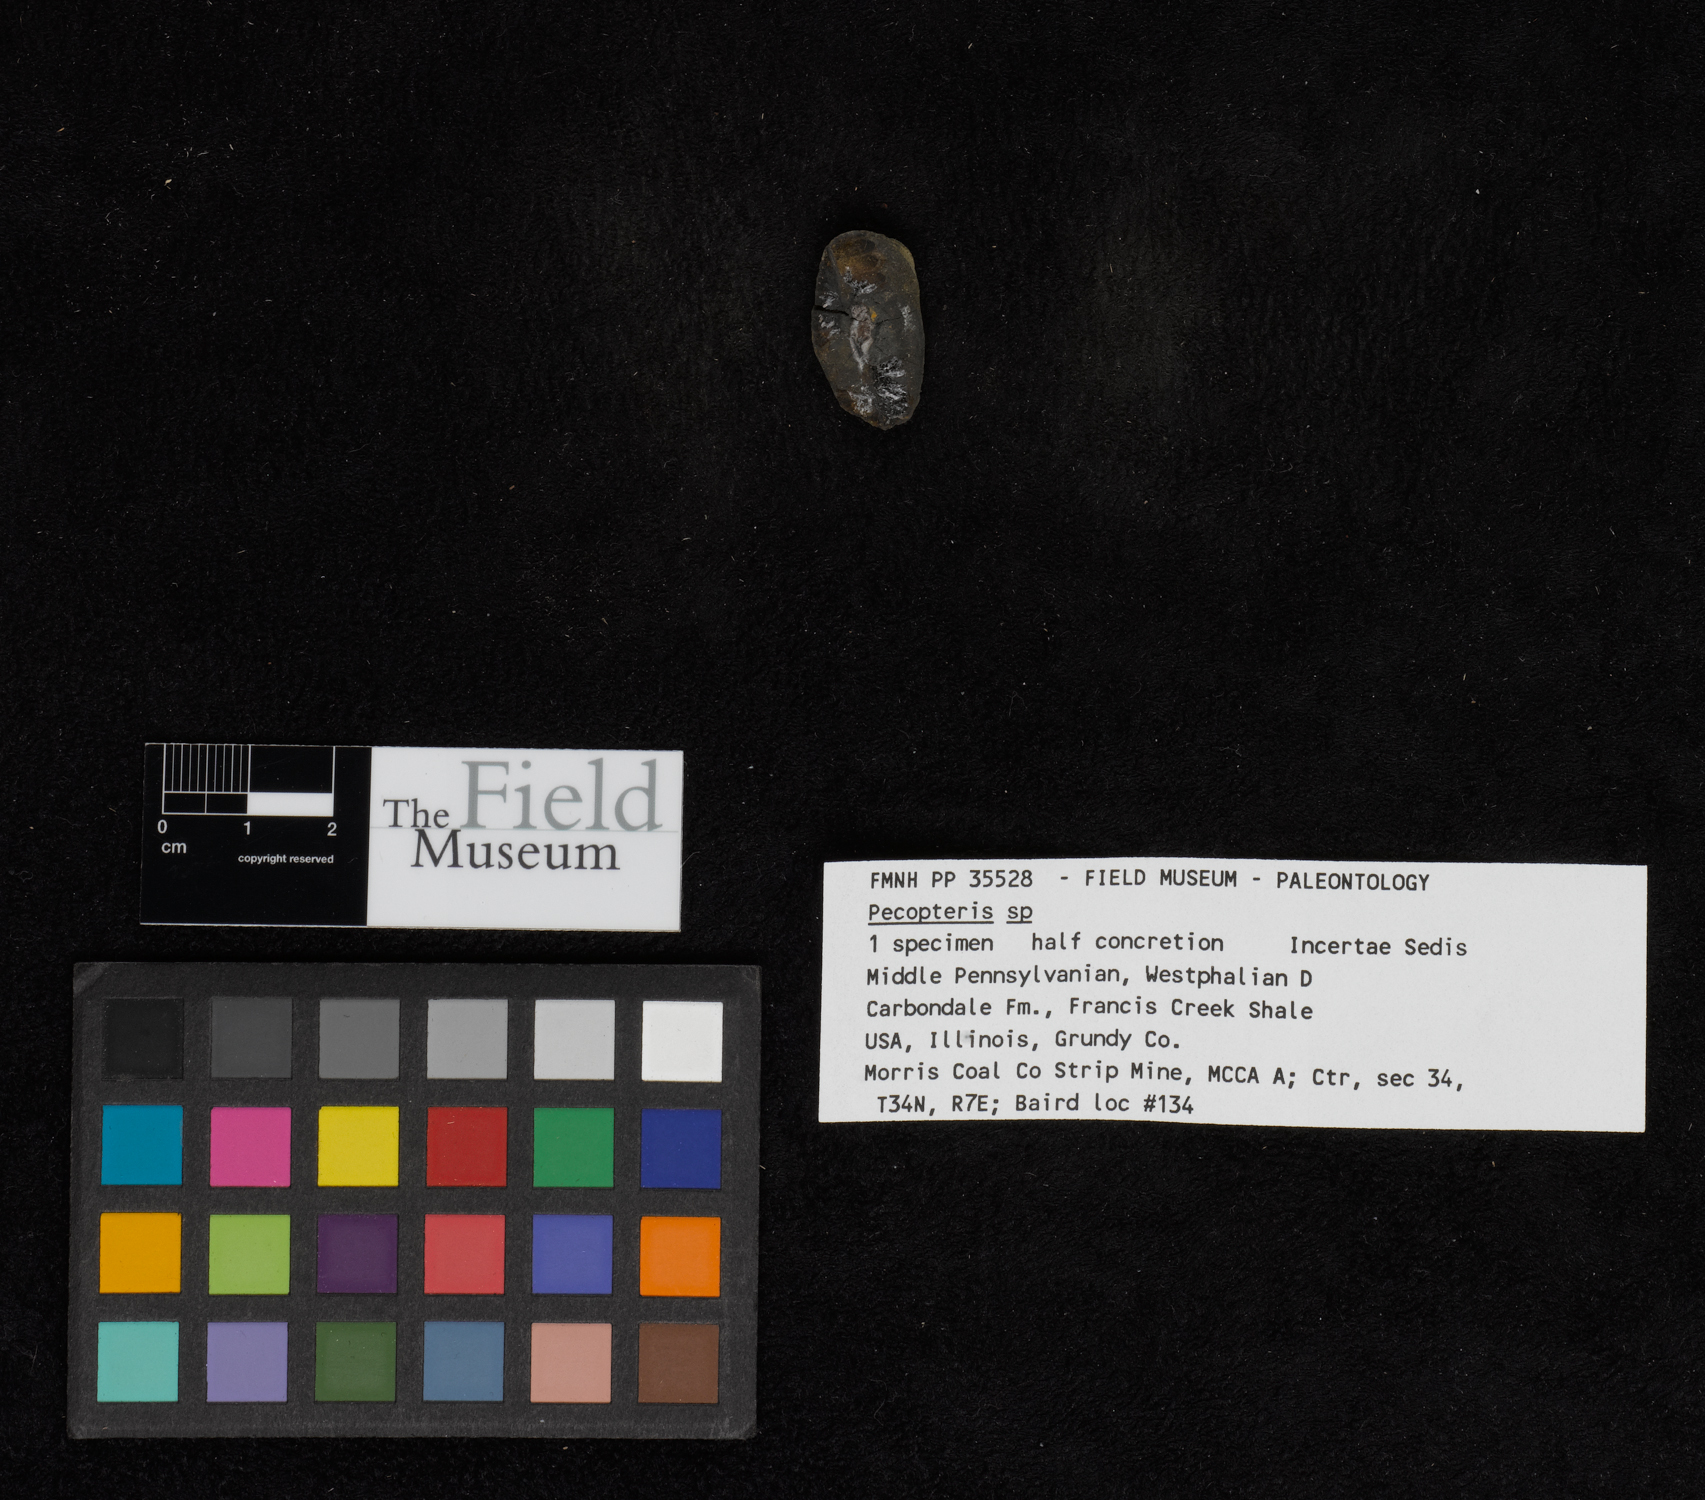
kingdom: Plantae
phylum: Tracheophyta
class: Polypodiopsida
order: Marattiales
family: Asterothecaceae
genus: Pecopteris
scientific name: Pecopteris
